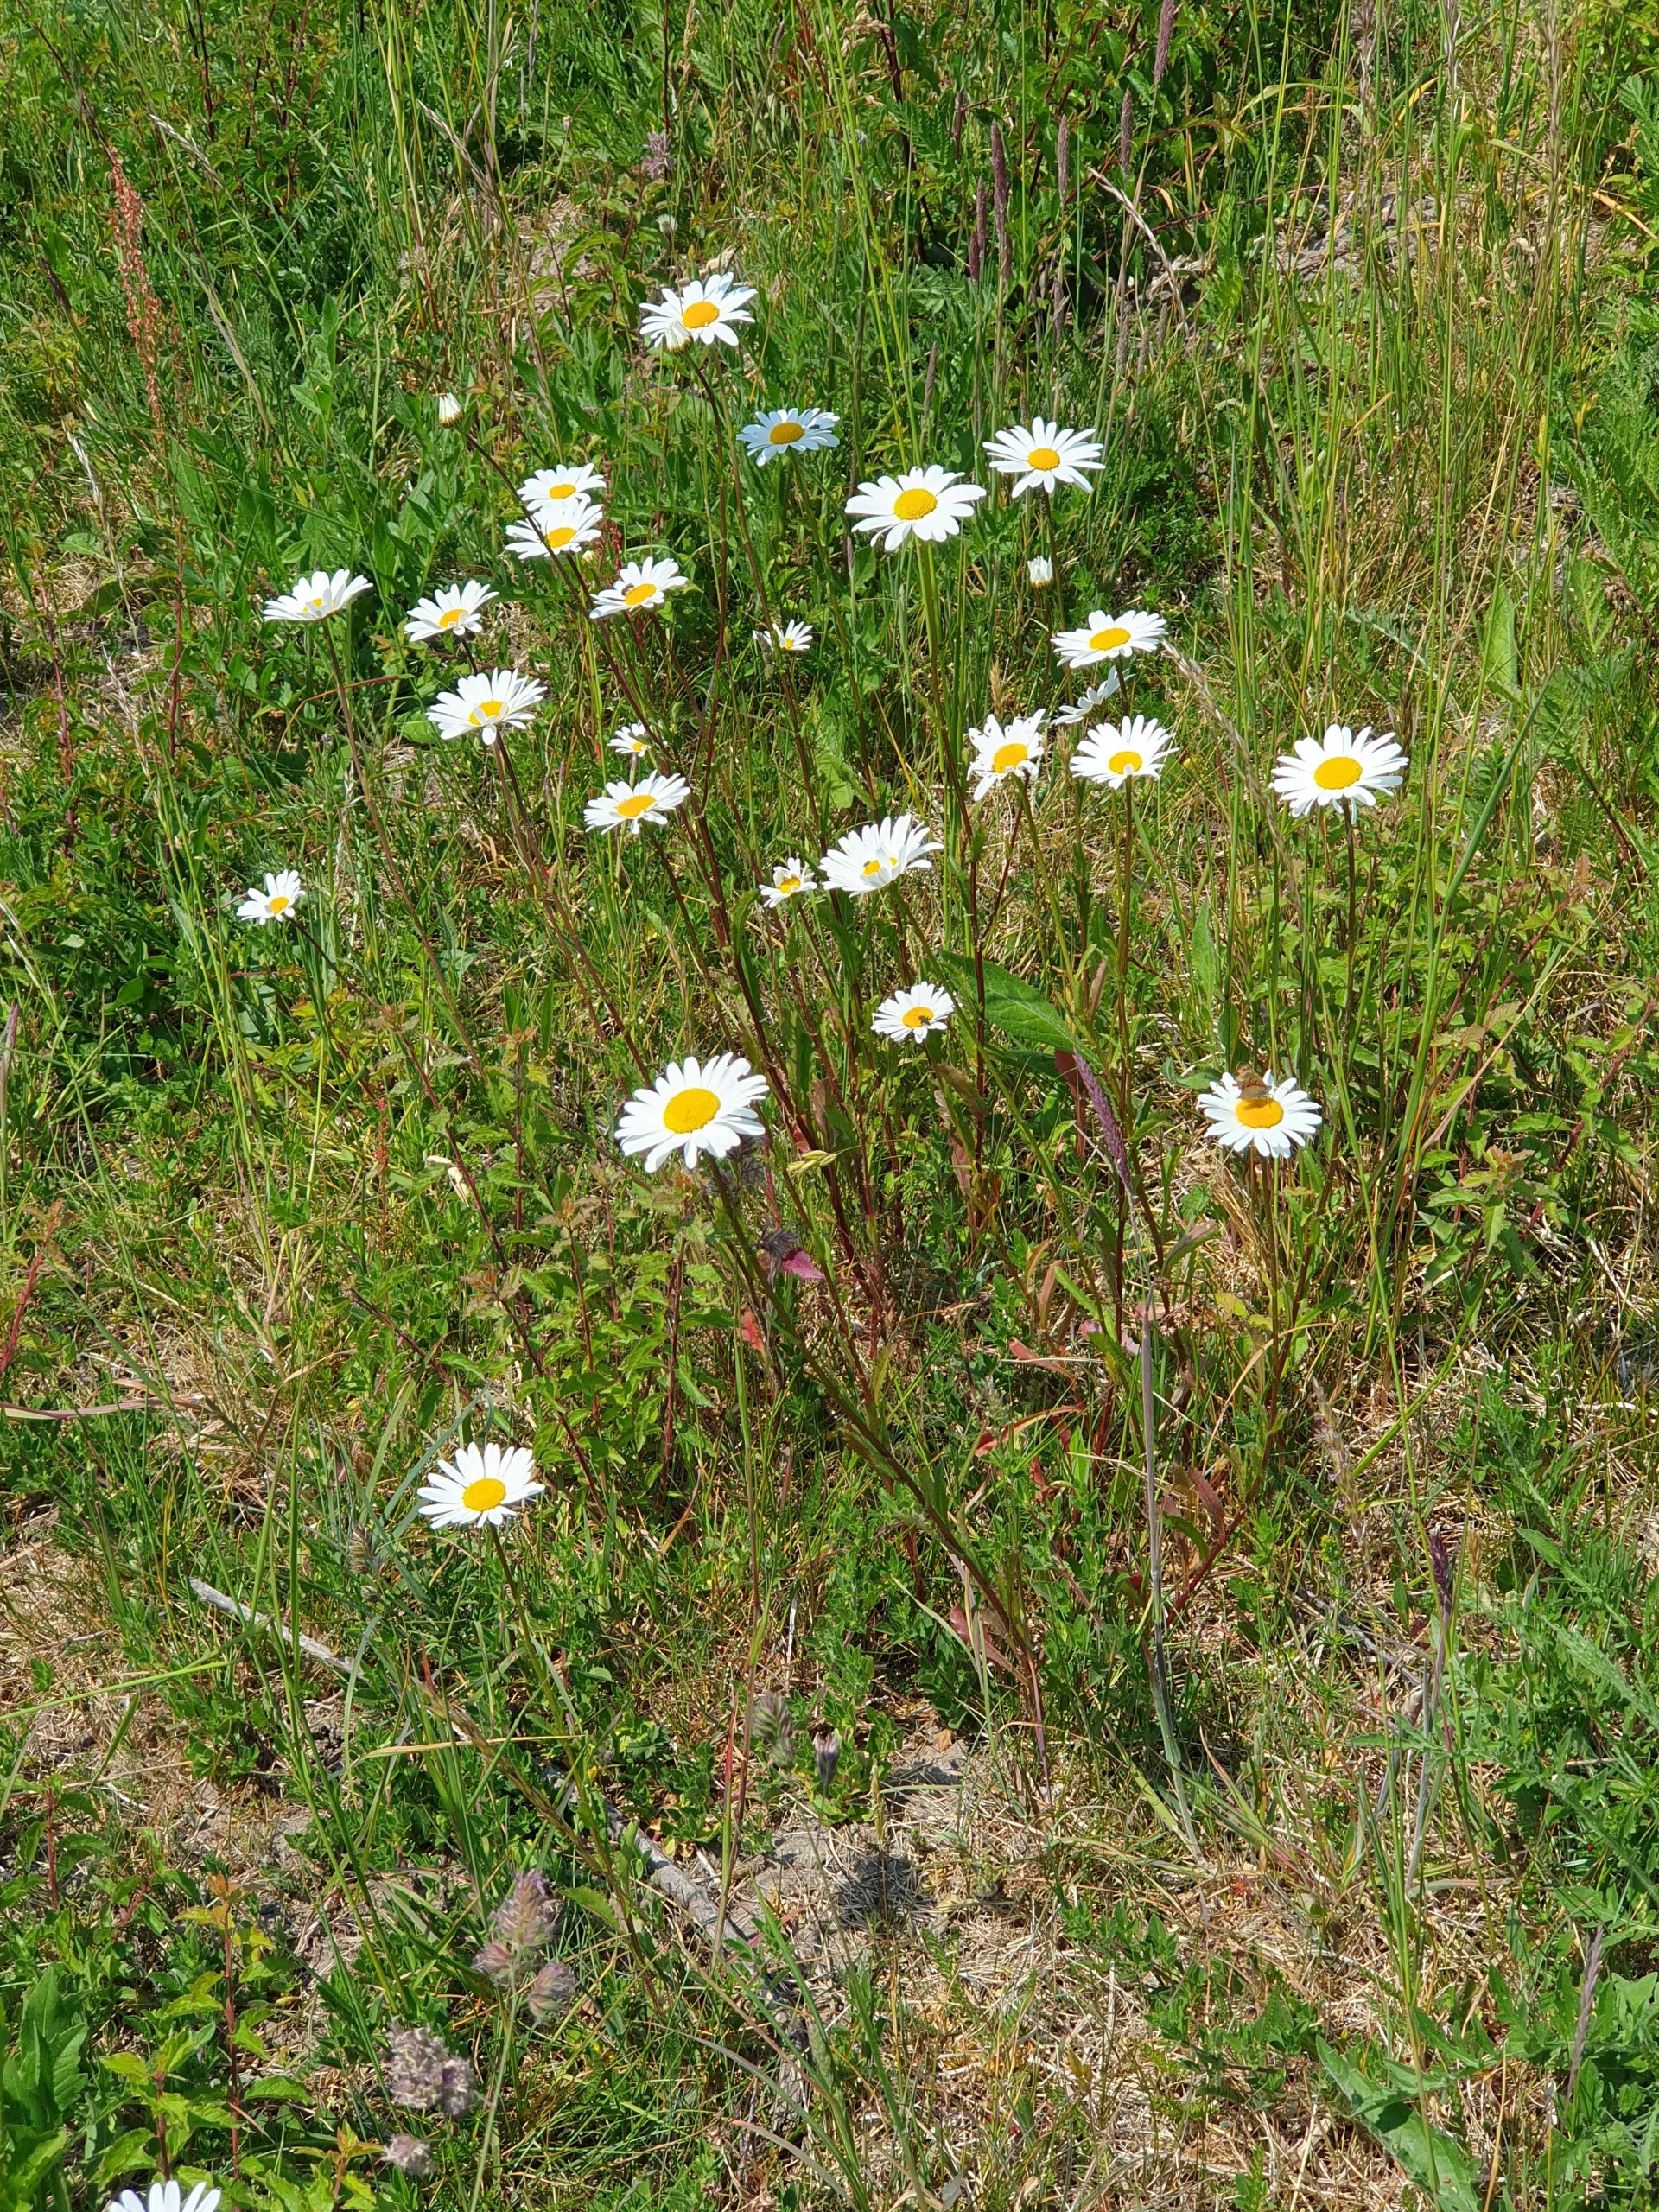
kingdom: Plantae
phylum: Tracheophyta
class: Magnoliopsida
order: Asterales
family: Asteraceae
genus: Leucanthemum
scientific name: Leucanthemum vulgare
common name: Hvid okseøje
